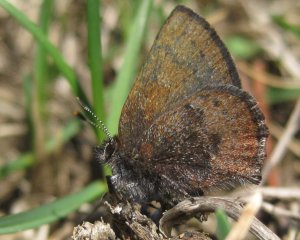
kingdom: Animalia
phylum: Arthropoda
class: Insecta
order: Lepidoptera
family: Lycaenidae
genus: Incisalia
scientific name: Incisalia irioides
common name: Brown Elfin
